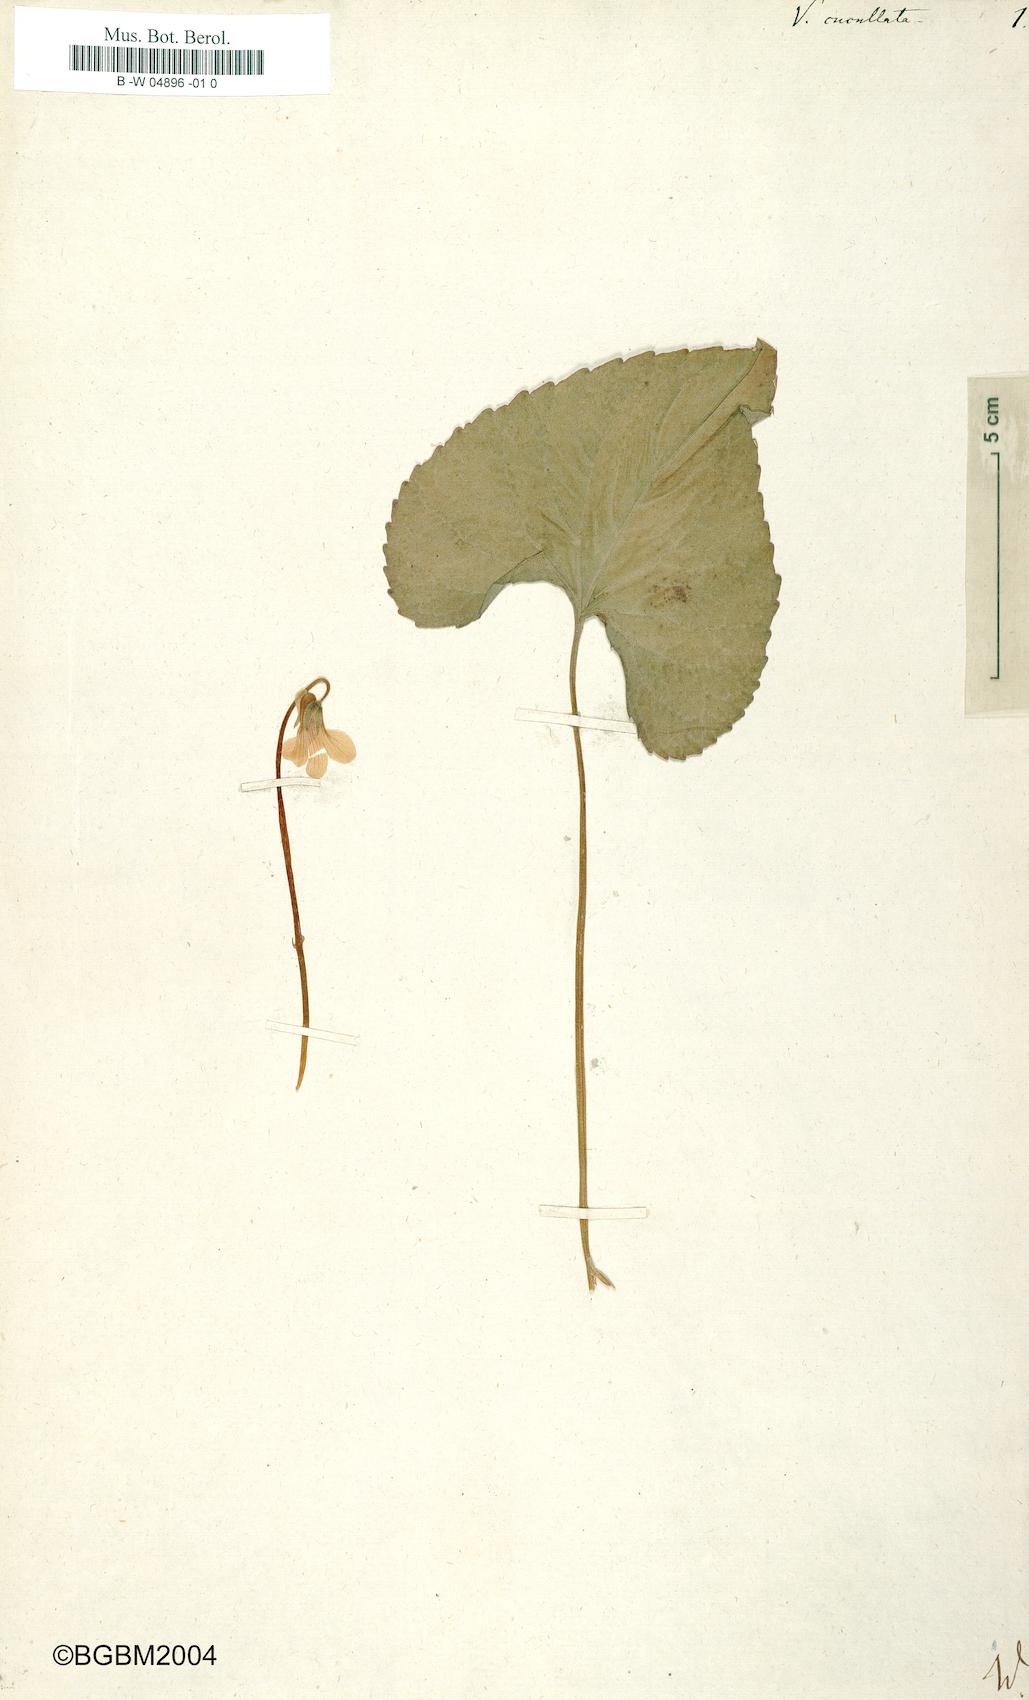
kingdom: Plantae
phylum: Tracheophyta
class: Magnoliopsida
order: Malpighiales
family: Violaceae
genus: Viola
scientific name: Viola cucullata
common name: Marsh blue violet
